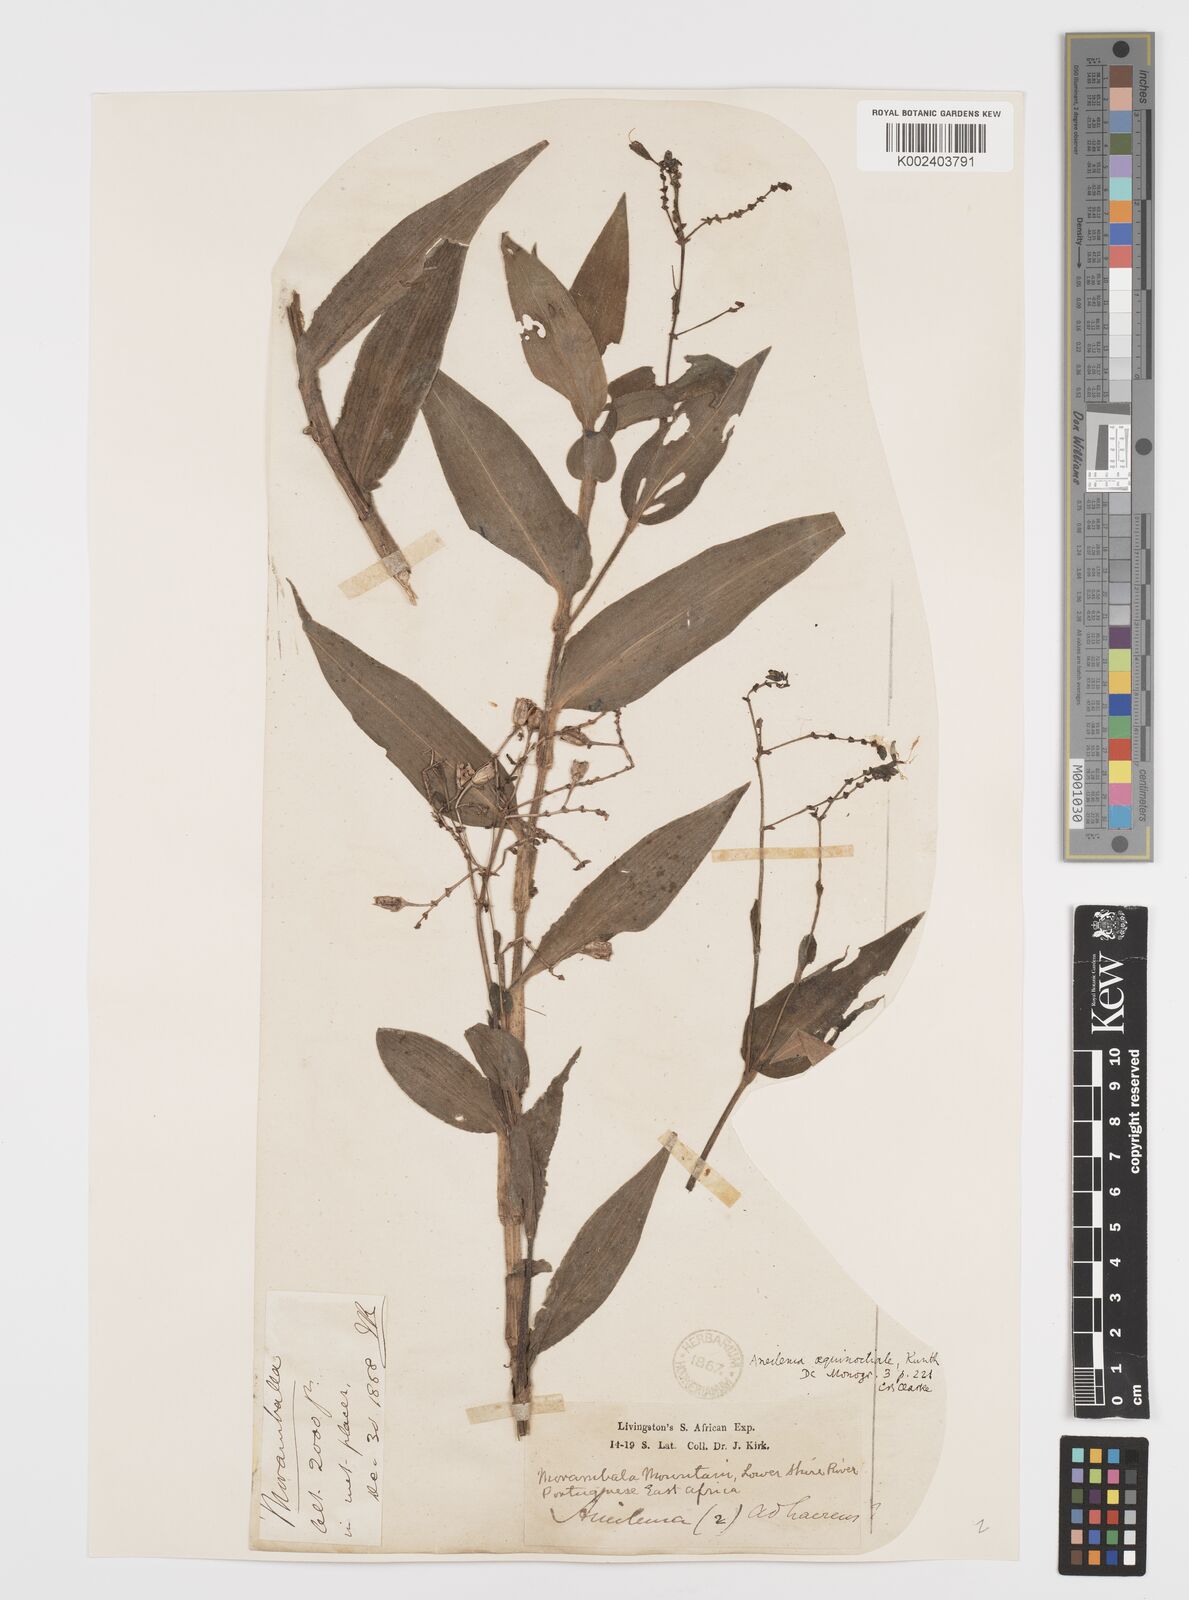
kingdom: Plantae
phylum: Tracheophyta
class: Liliopsida
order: Commelinales
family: Commelinaceae
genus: Aneilema
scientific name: Aneilema aequinoctiale
